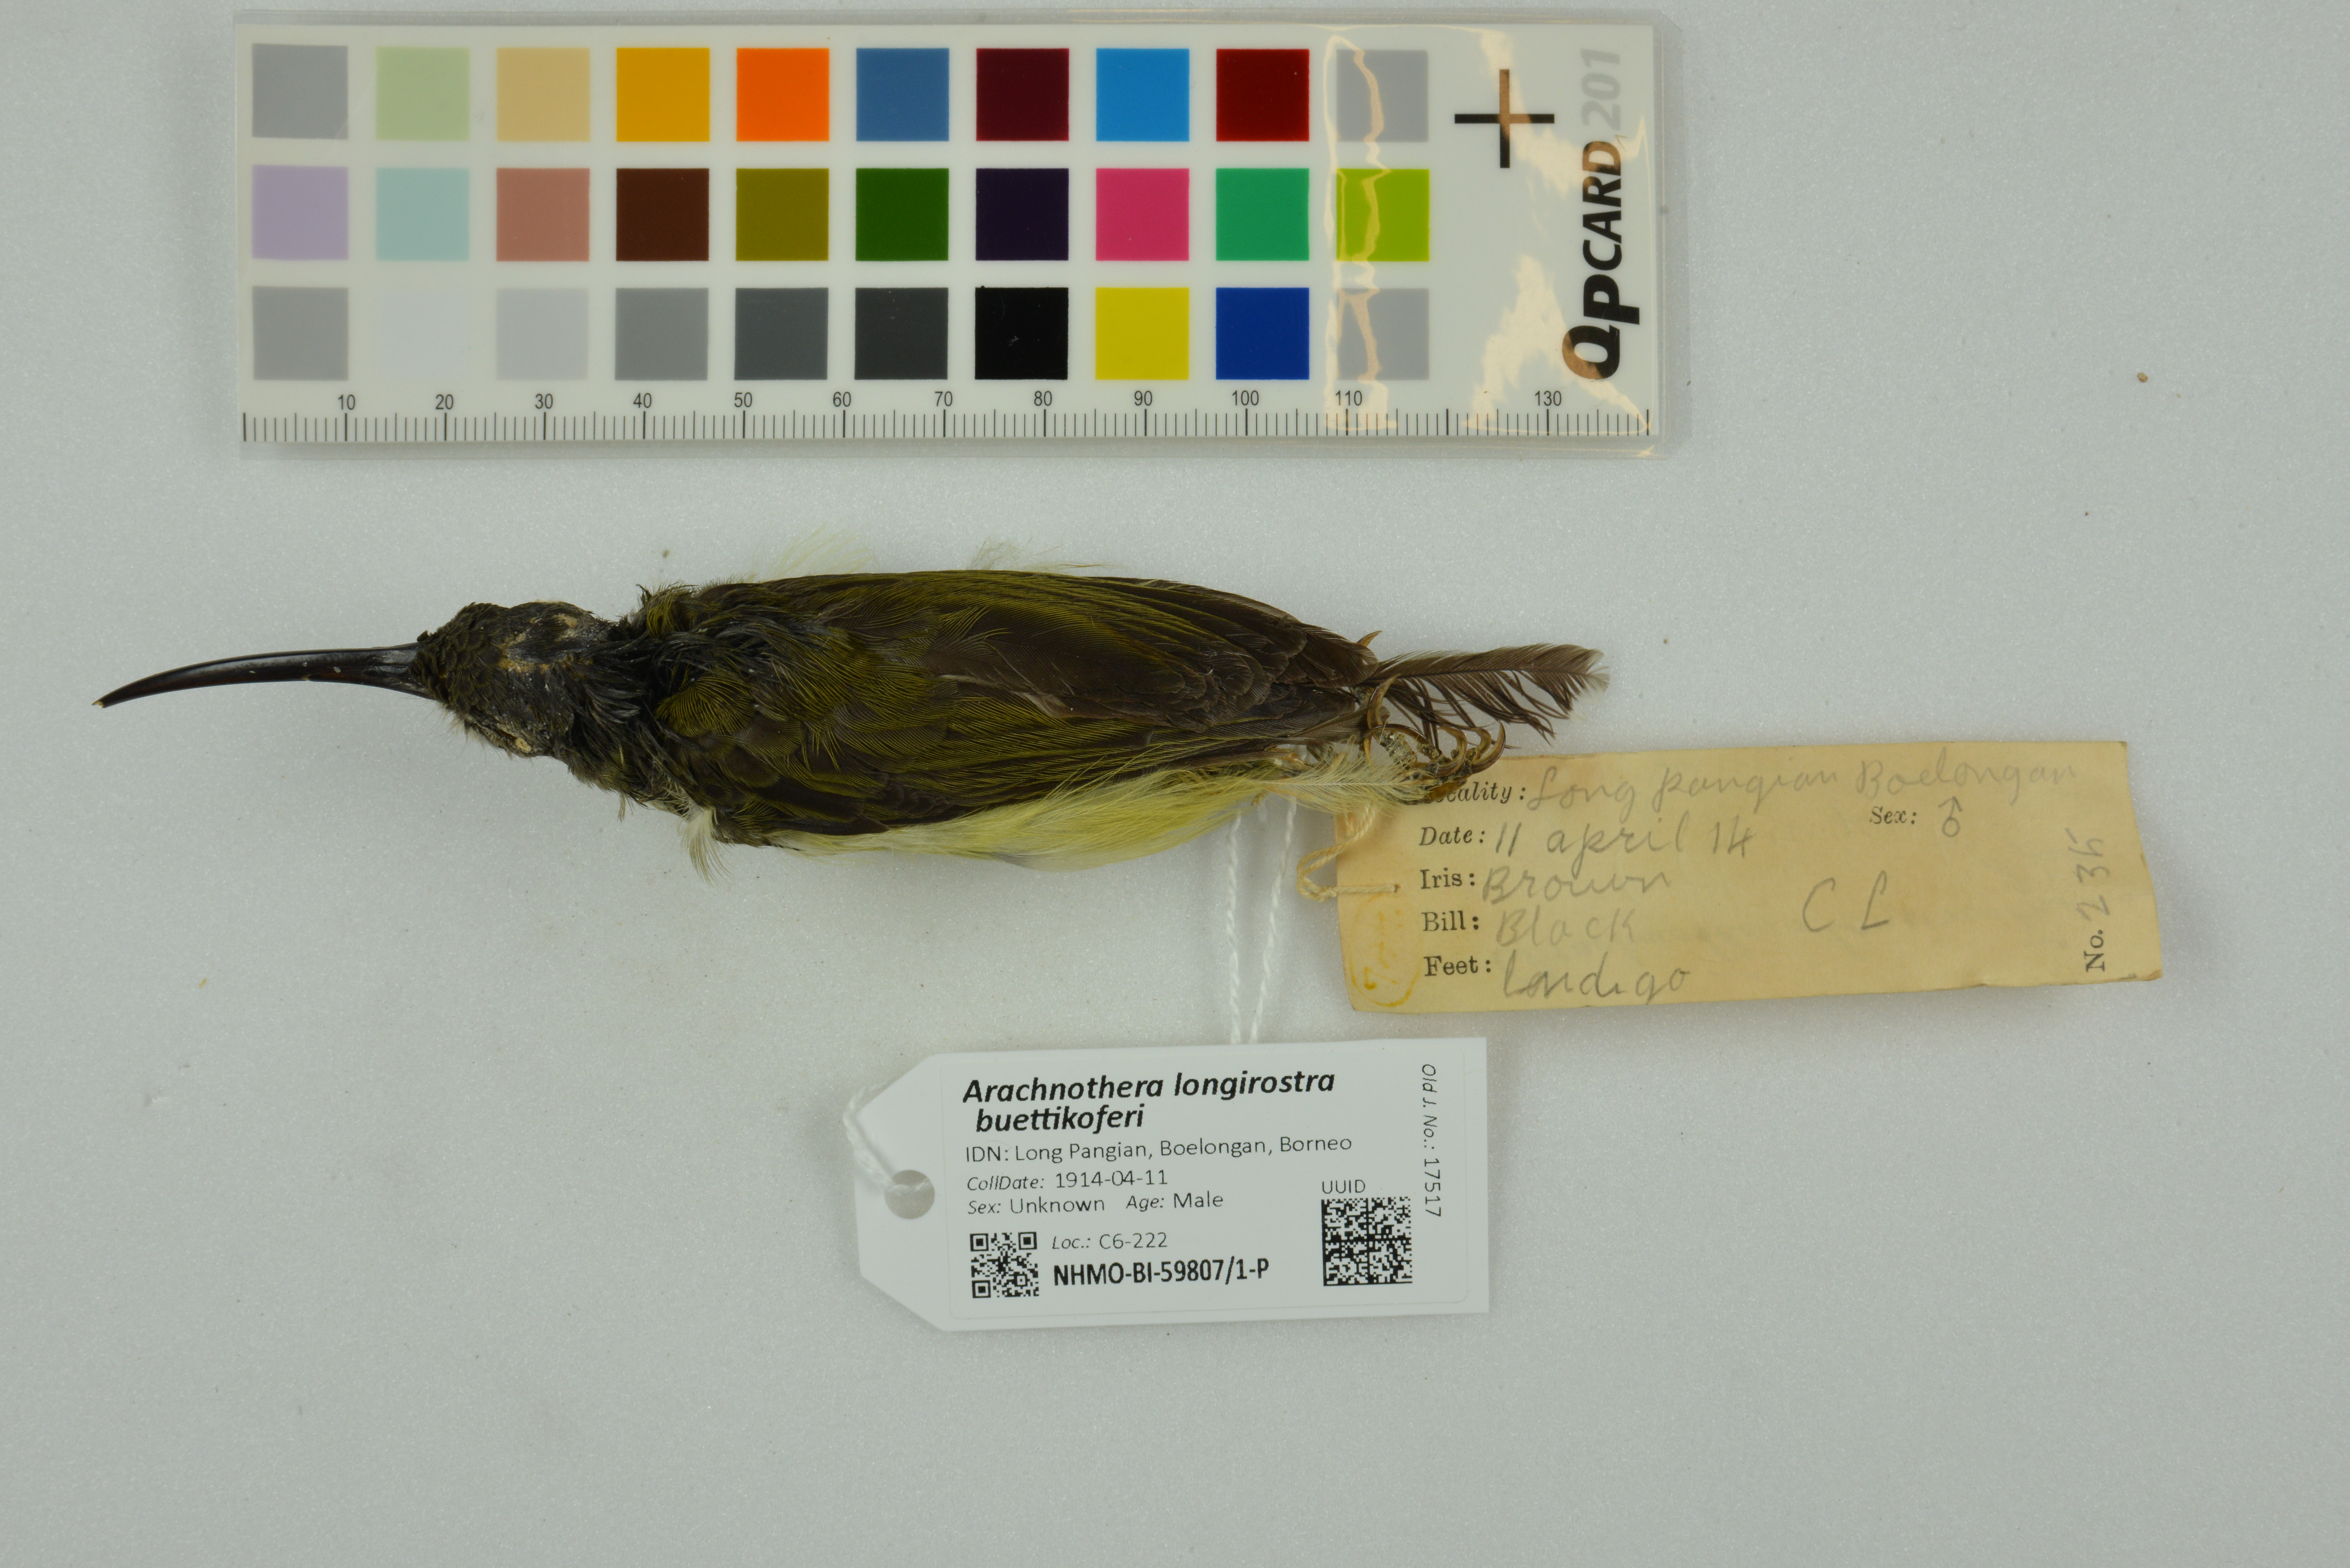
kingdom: Animalia
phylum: Chordata
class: Aves
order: Passeriformes
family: Nectariniidae
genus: Arachnothera
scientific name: Arachnothera longirostra
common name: Little spiderhunter
